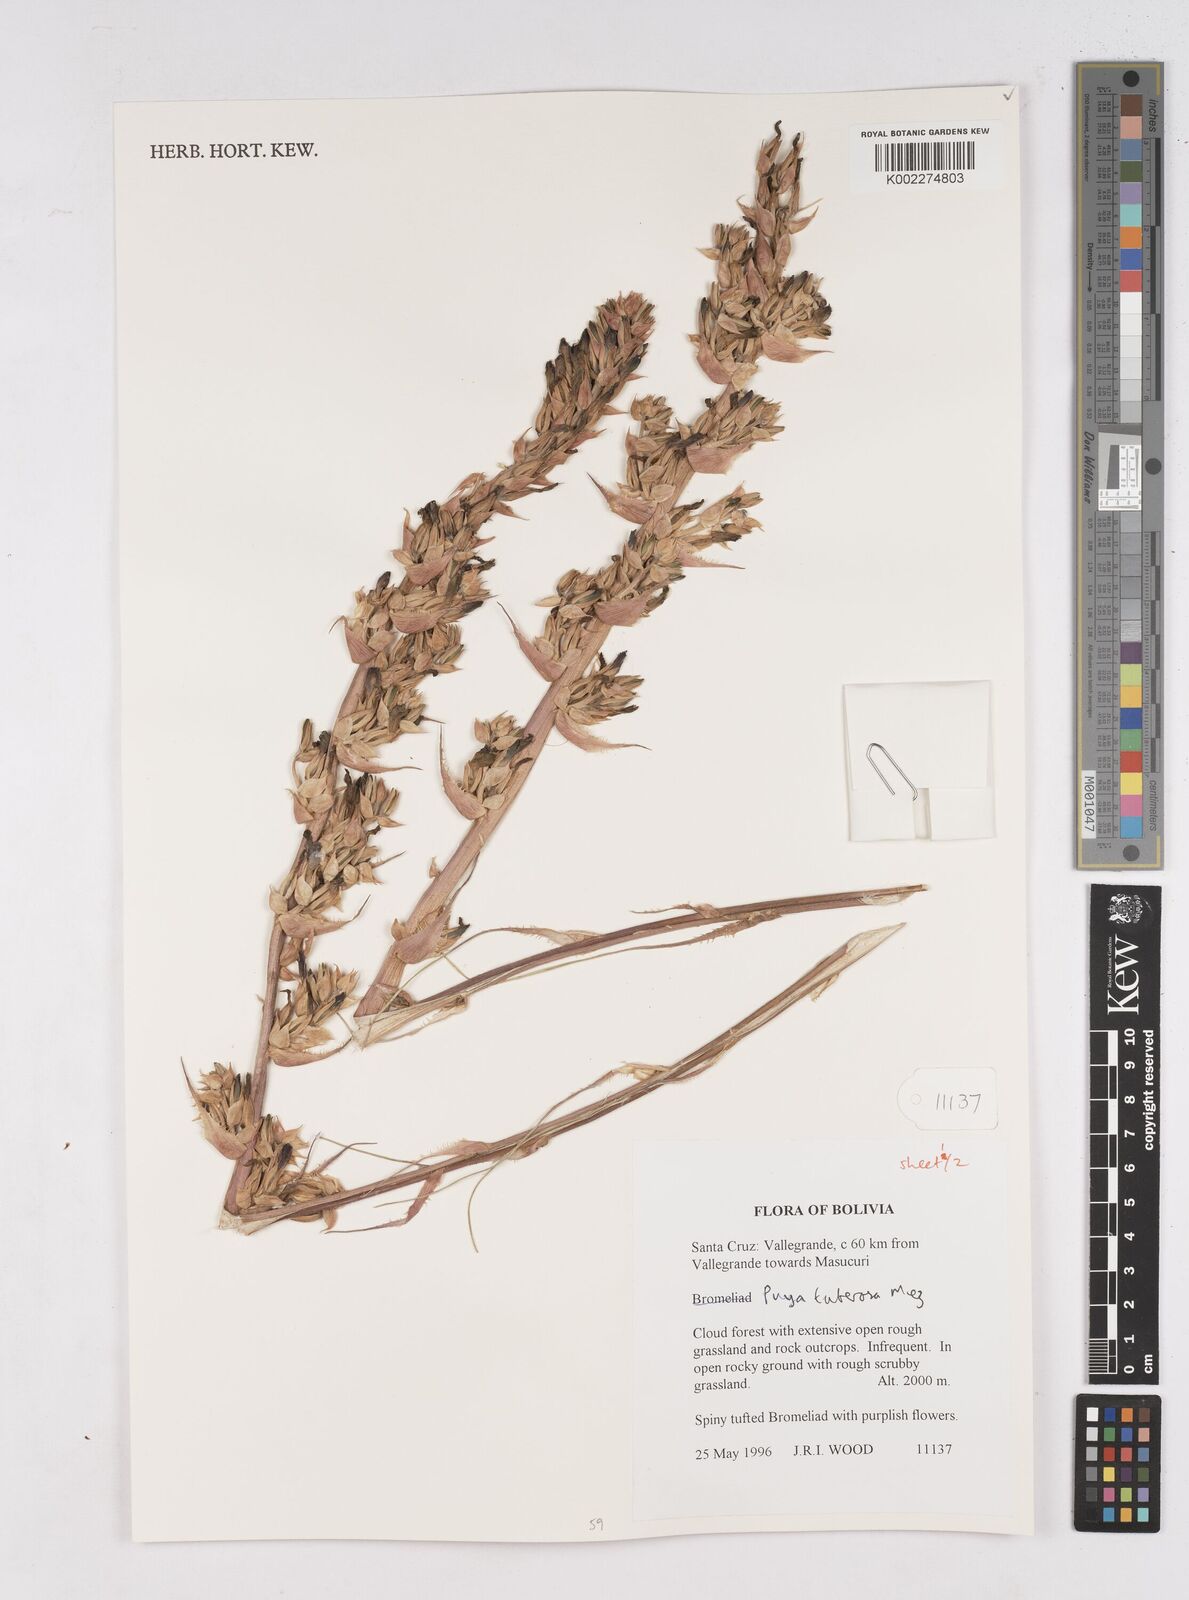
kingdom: Plantae
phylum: Tracheophyta
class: Liliopsida
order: Poales
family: Bromeliaceae
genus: Puya
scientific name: Puya tuberosa
